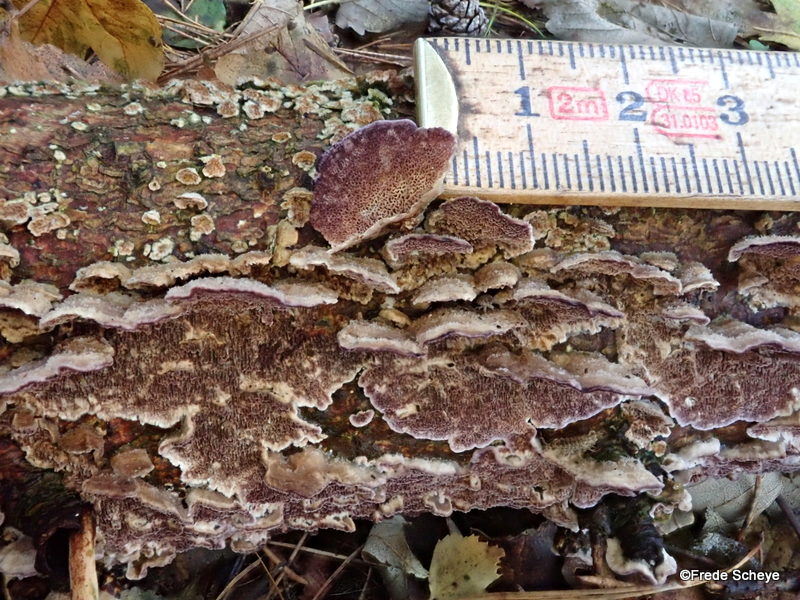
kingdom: Fungi
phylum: Basidiomycota
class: Agaricomycetes
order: Hymenochaetales
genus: Trichaptum
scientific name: Trichaptum abietinum
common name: almindelig violporesvamp
